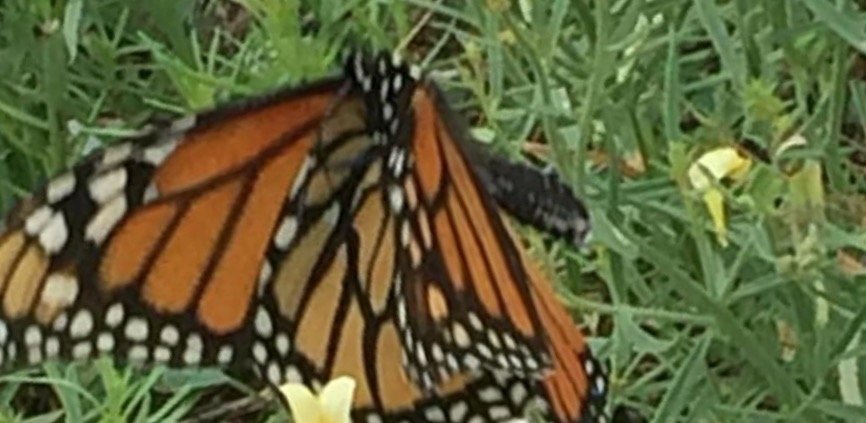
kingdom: Animalia
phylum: Arthropoda
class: Insecta
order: Lepidoptera
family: Nymphalidae
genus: Danaus
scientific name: Danaus plexippus
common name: Monarch
